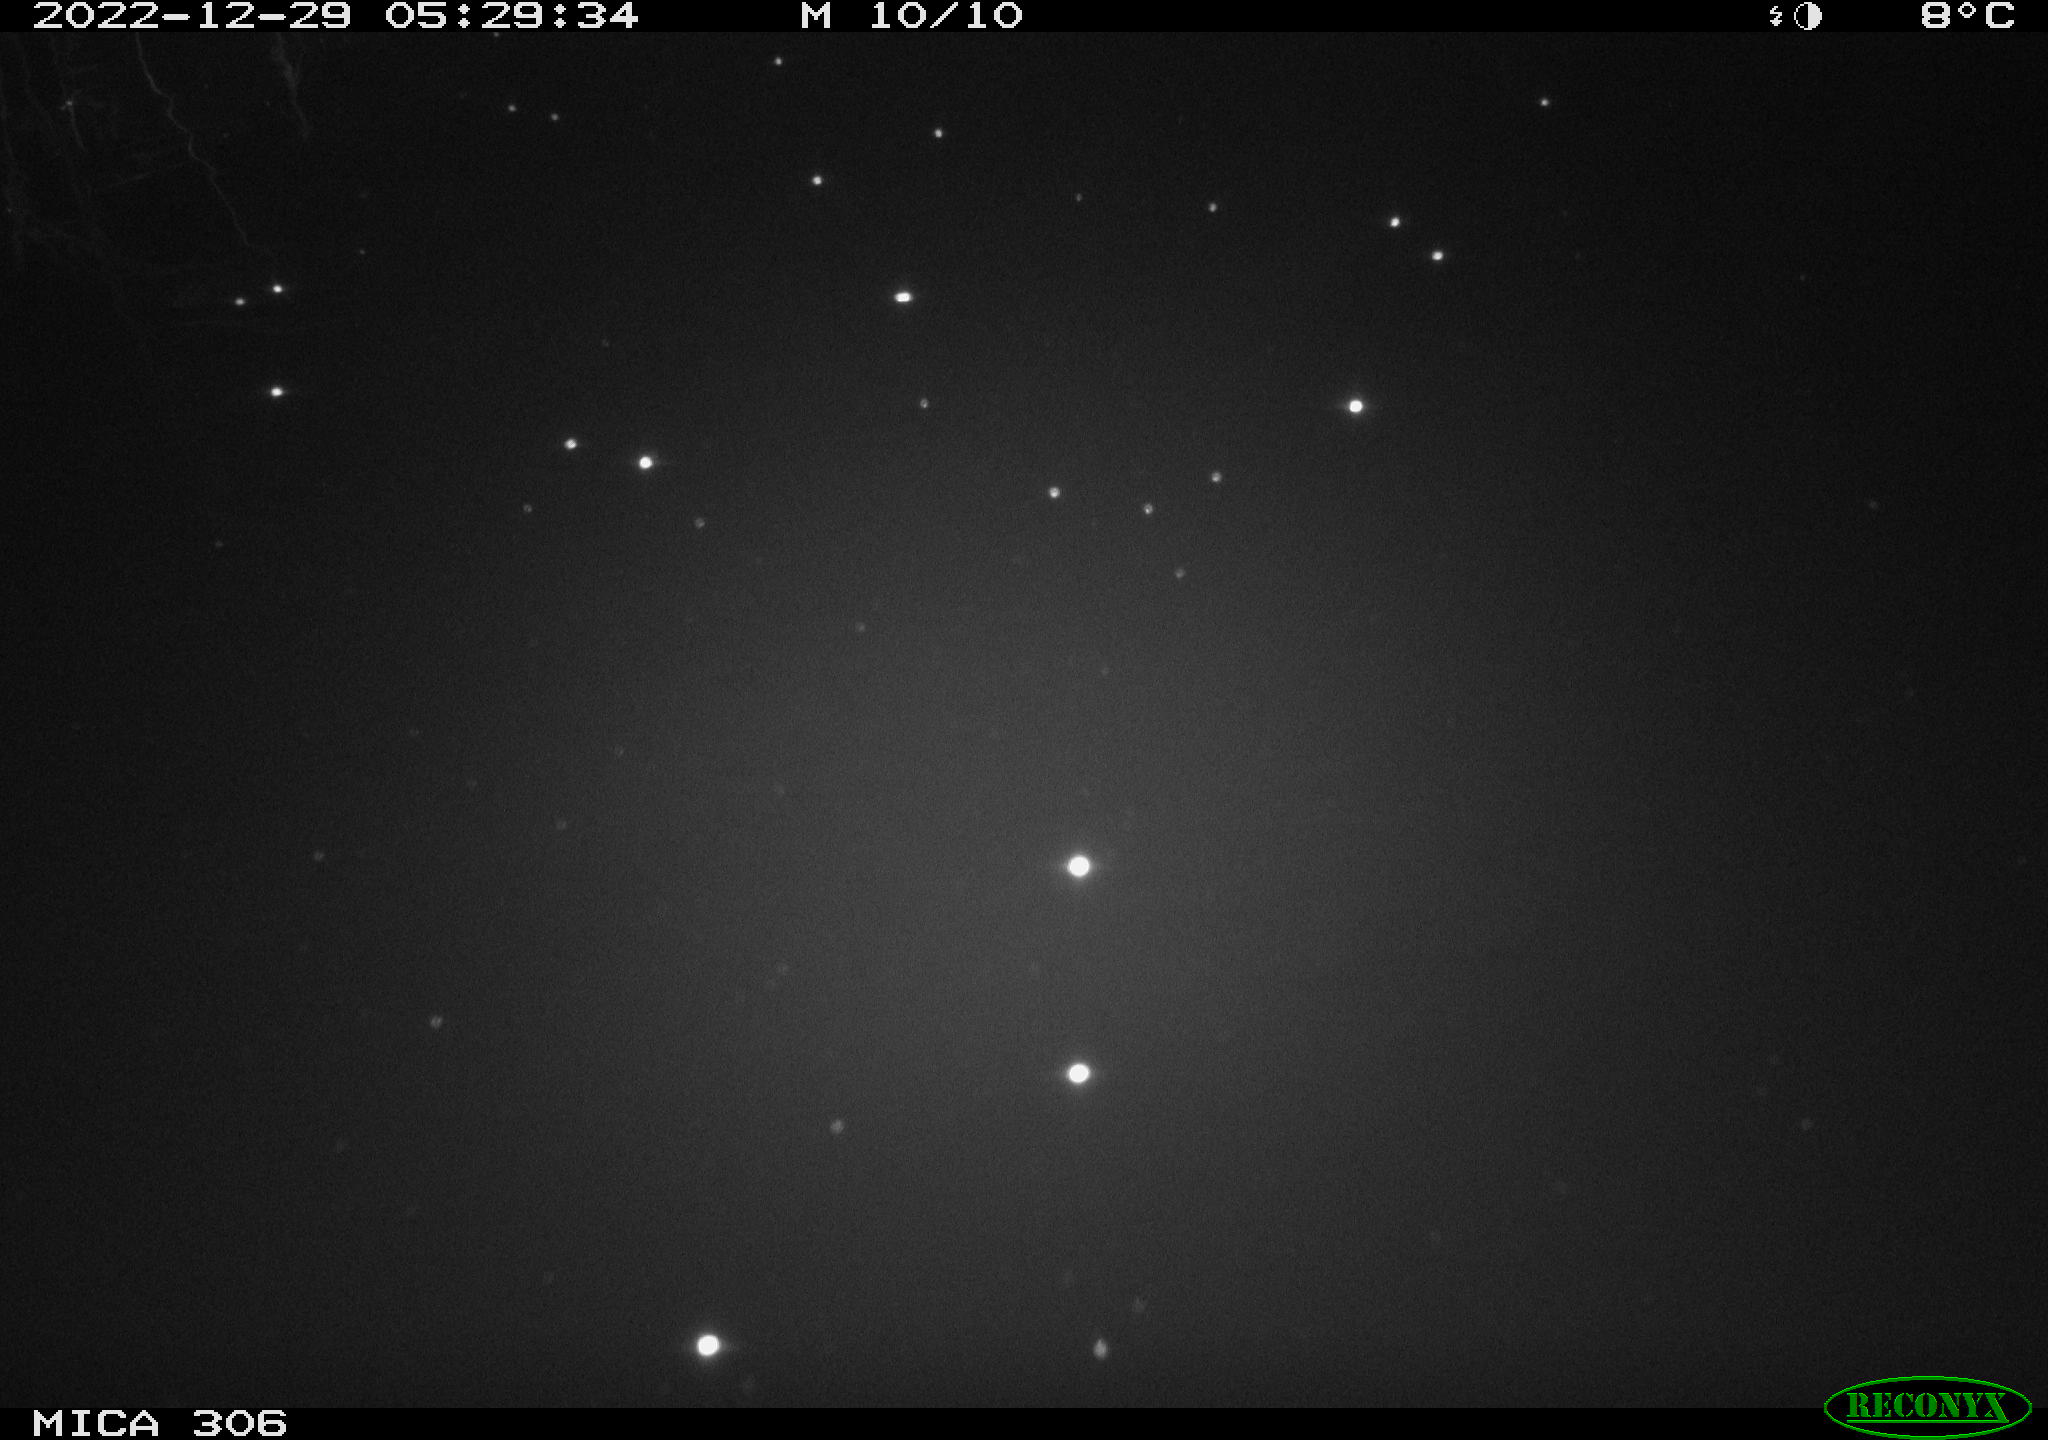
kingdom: Animalia
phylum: Chordata
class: Mammalia
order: Rodentia
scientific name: Rodentia
